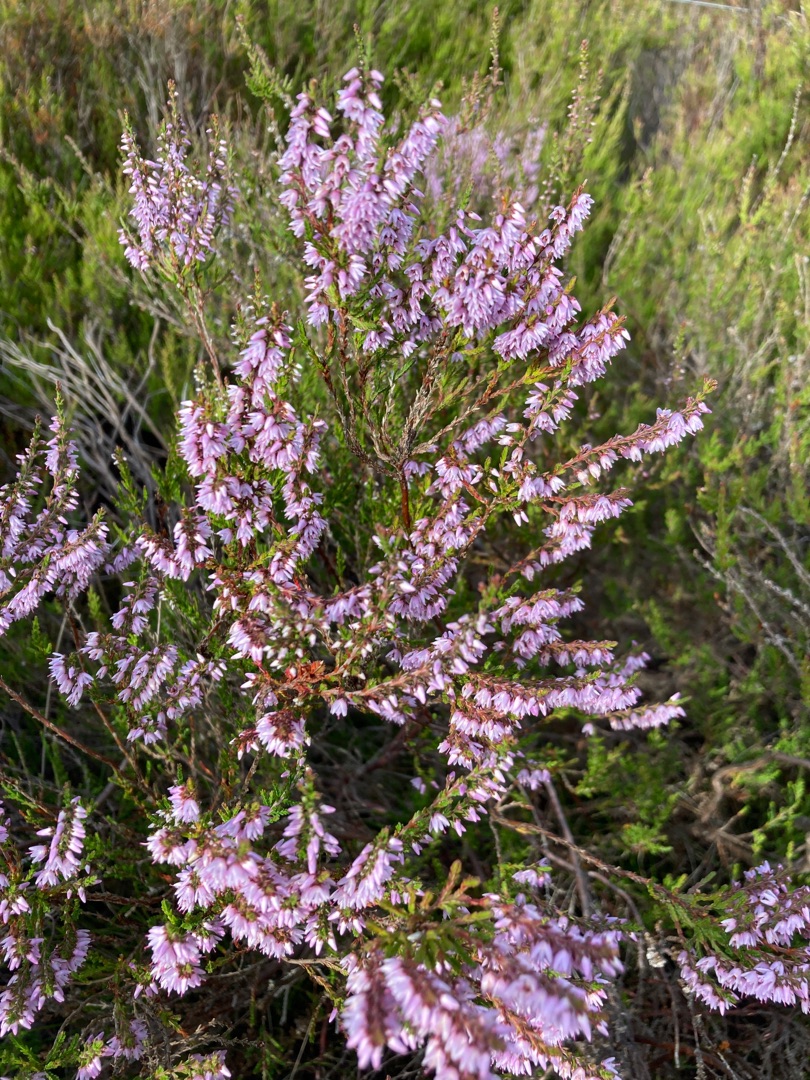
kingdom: Plantae
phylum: Tracheophyta
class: Magnoliopsida
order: Ericales
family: Ericaceae
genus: Calluna
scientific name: Calluna vulgaris
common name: Hedelyng
